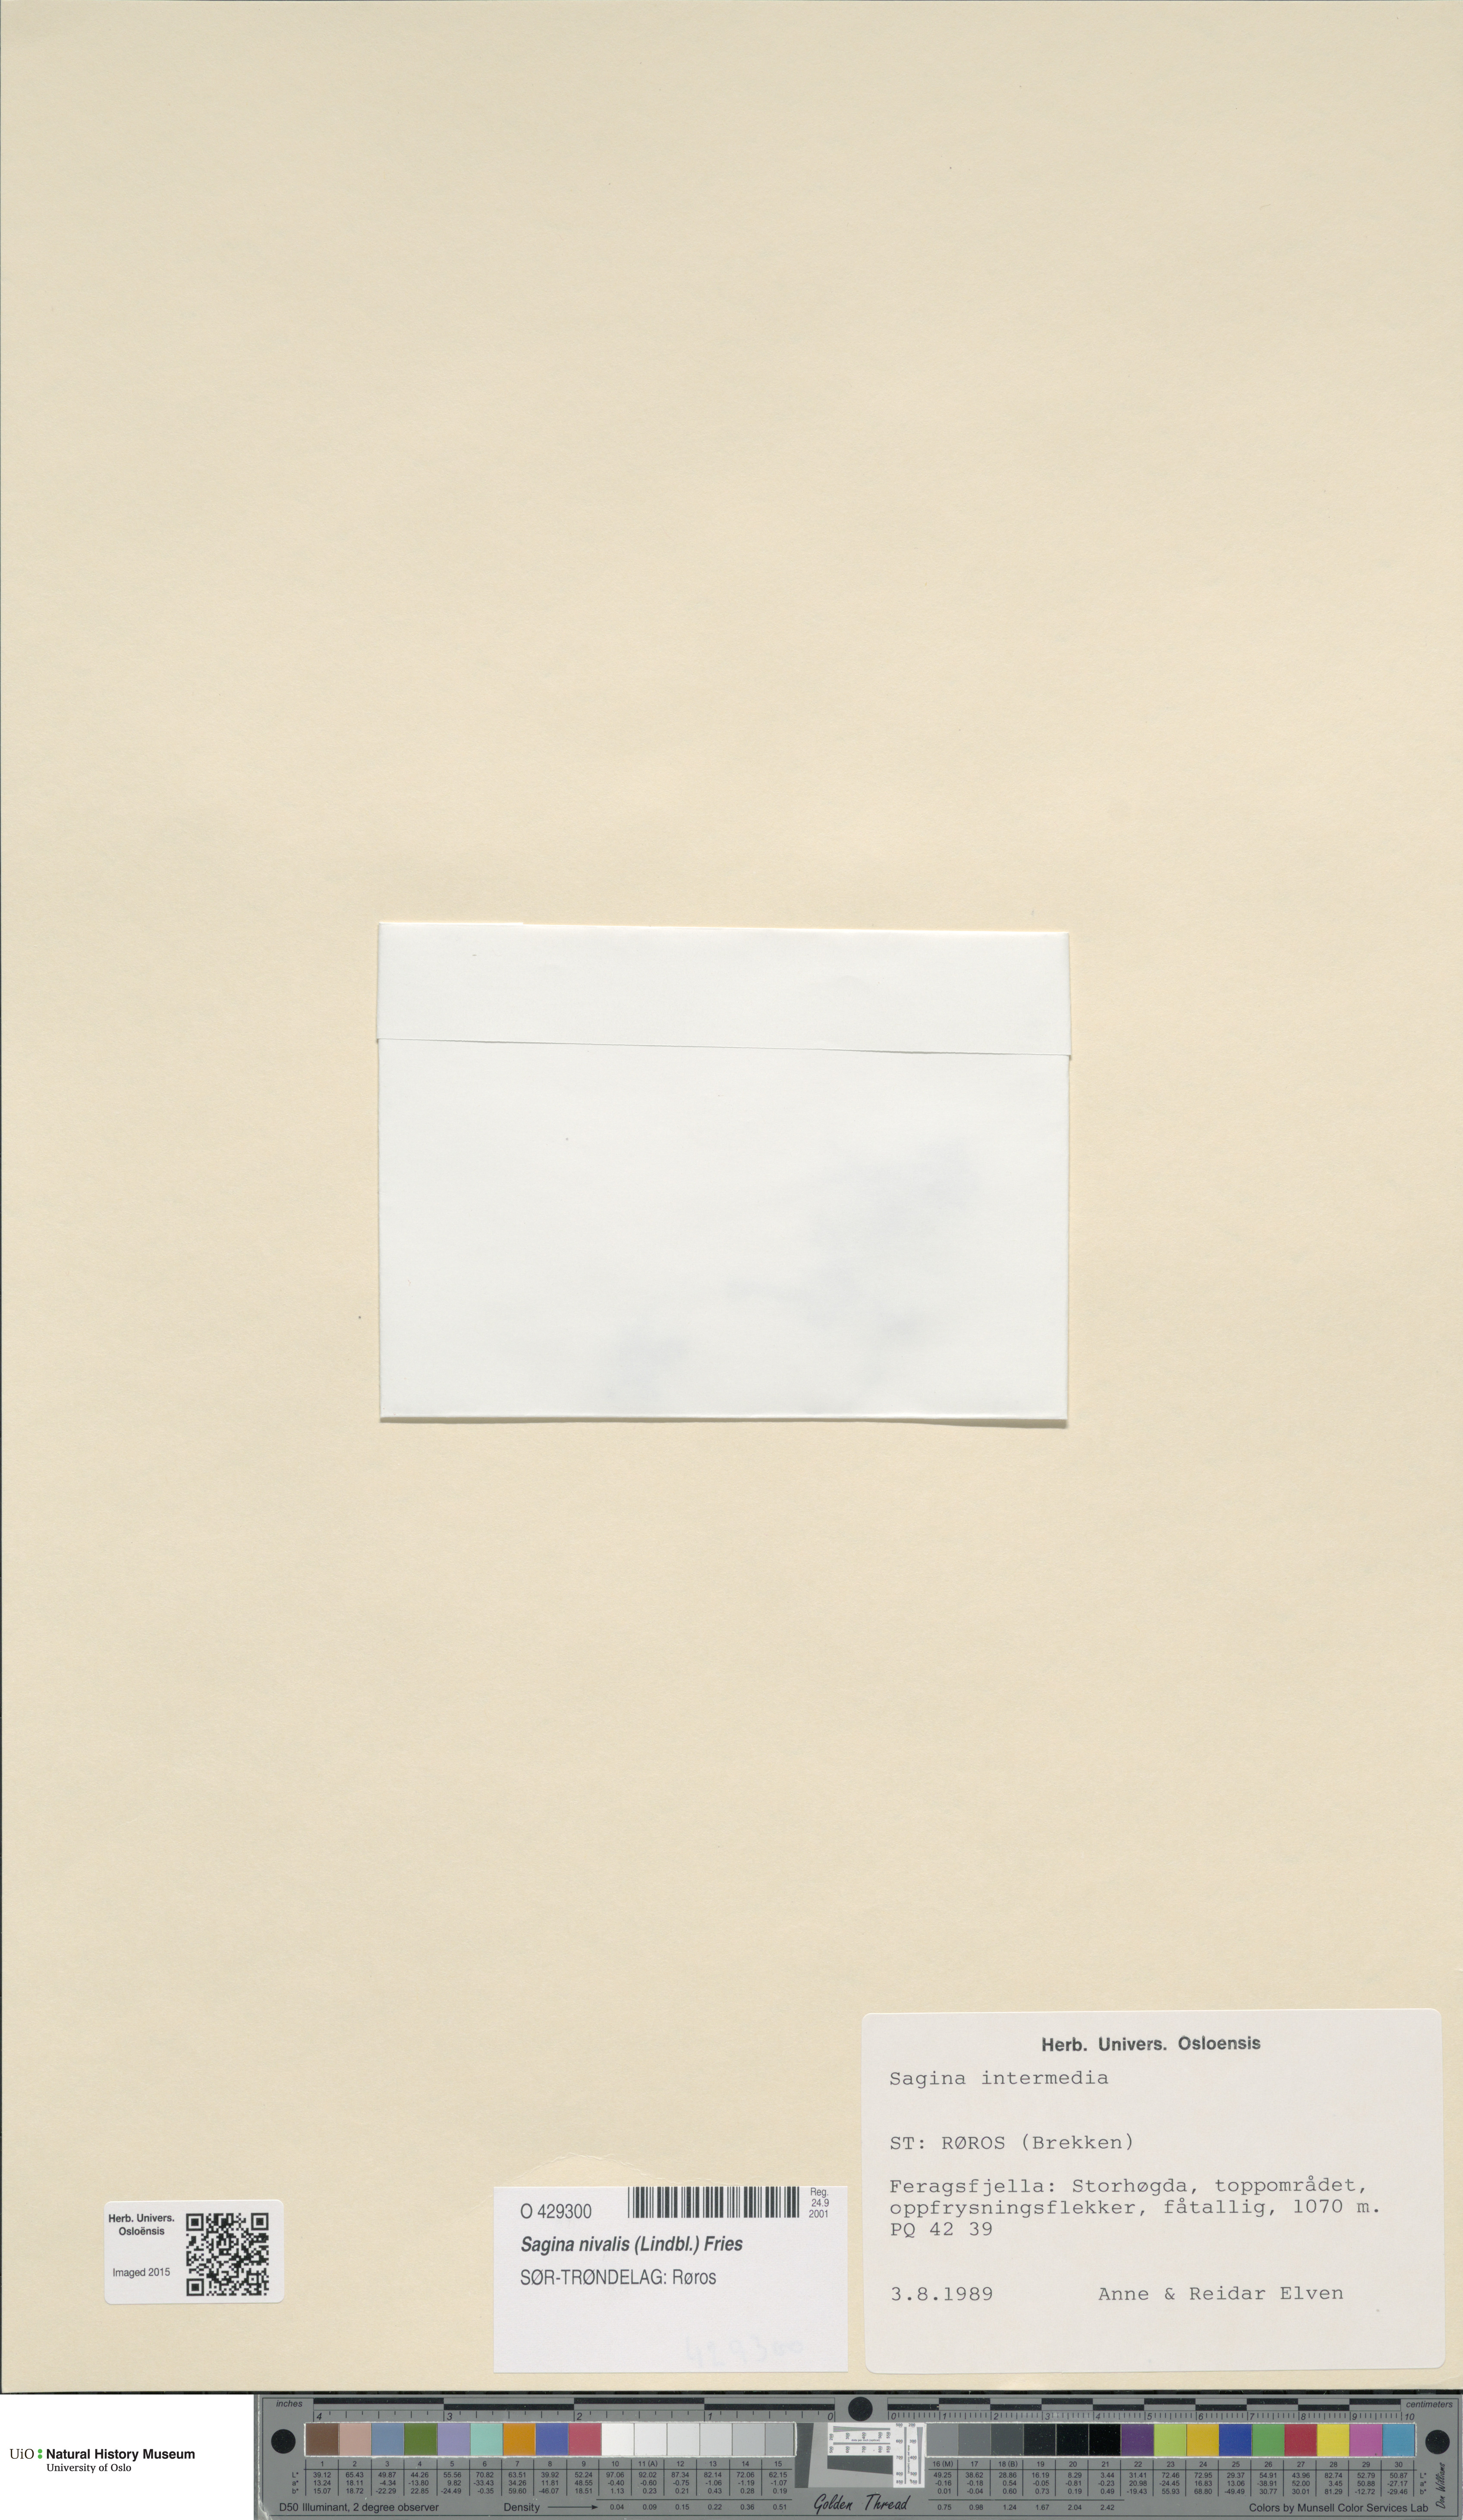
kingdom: Plantae
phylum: Tracheophyta
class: Magnoliopsida
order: Caryophyllales
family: Caryophyllaceae
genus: Sagina
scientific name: Sagina nivalis
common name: Snow pearlwort
